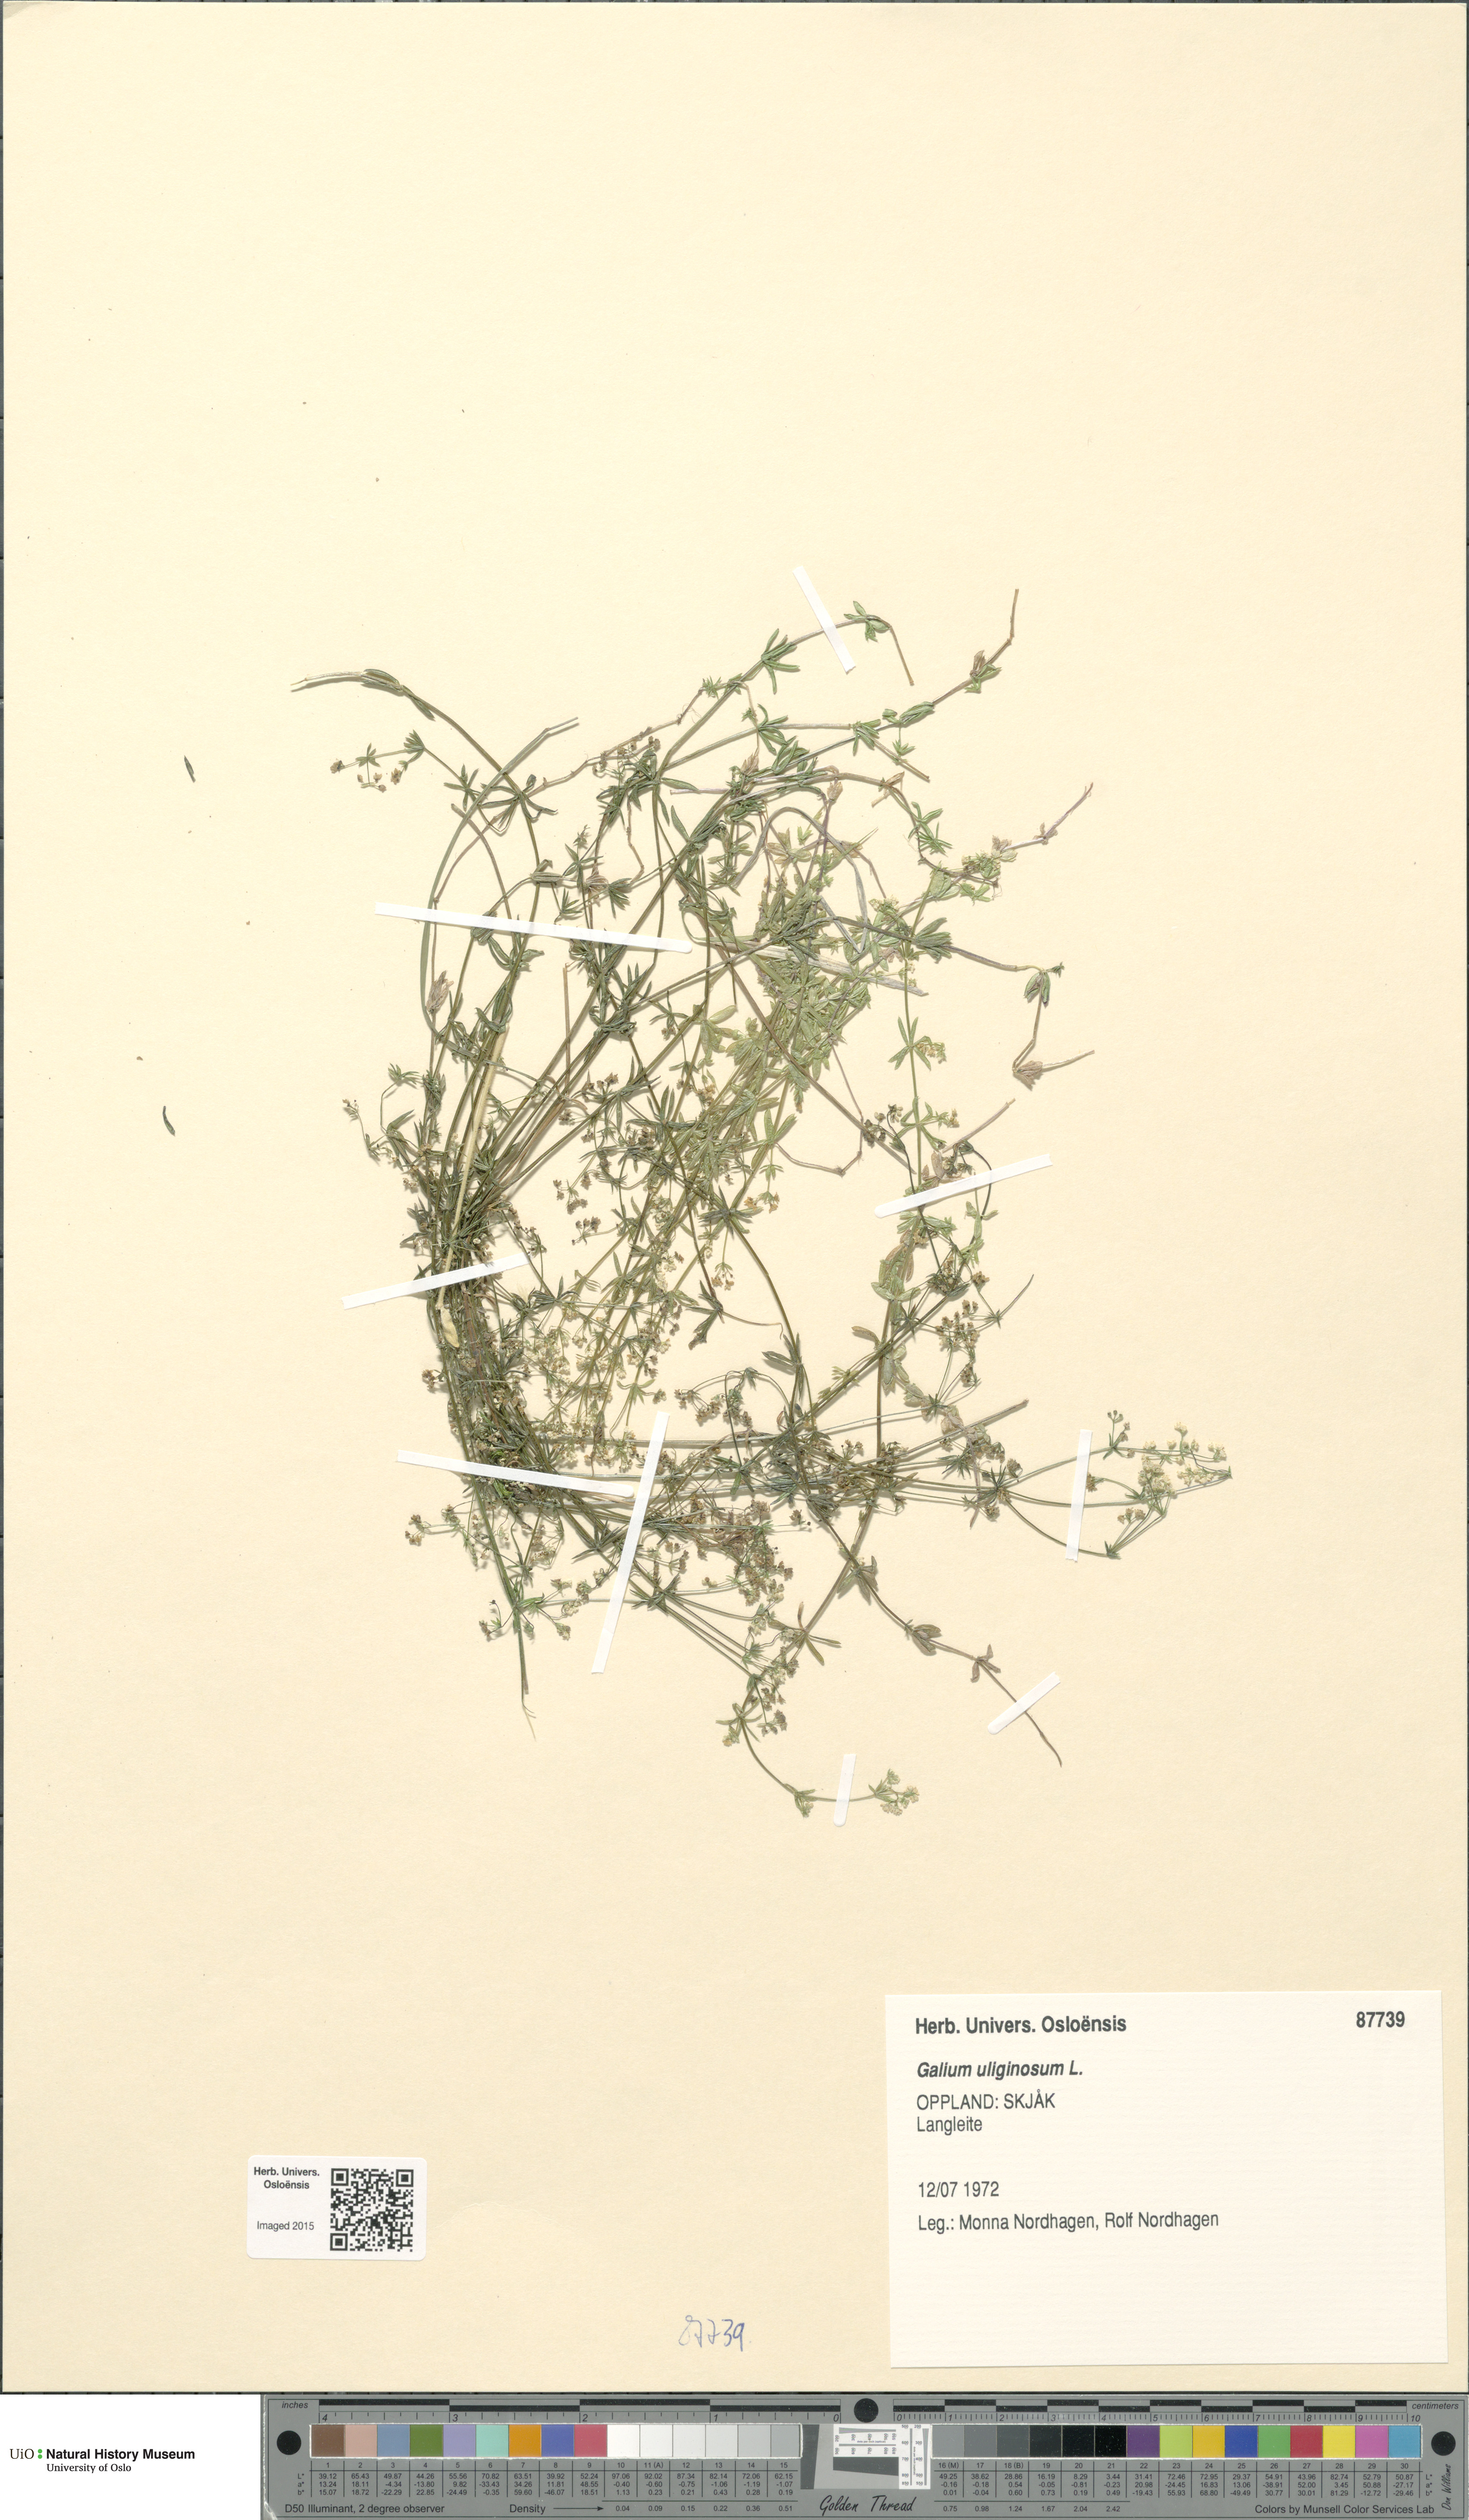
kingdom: Plantae
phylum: Tracheophyta
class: Magnoliopsida
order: Gentianales
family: Rubiaceae
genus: Galium
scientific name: Galium uliginosum
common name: Fen bedstraw
